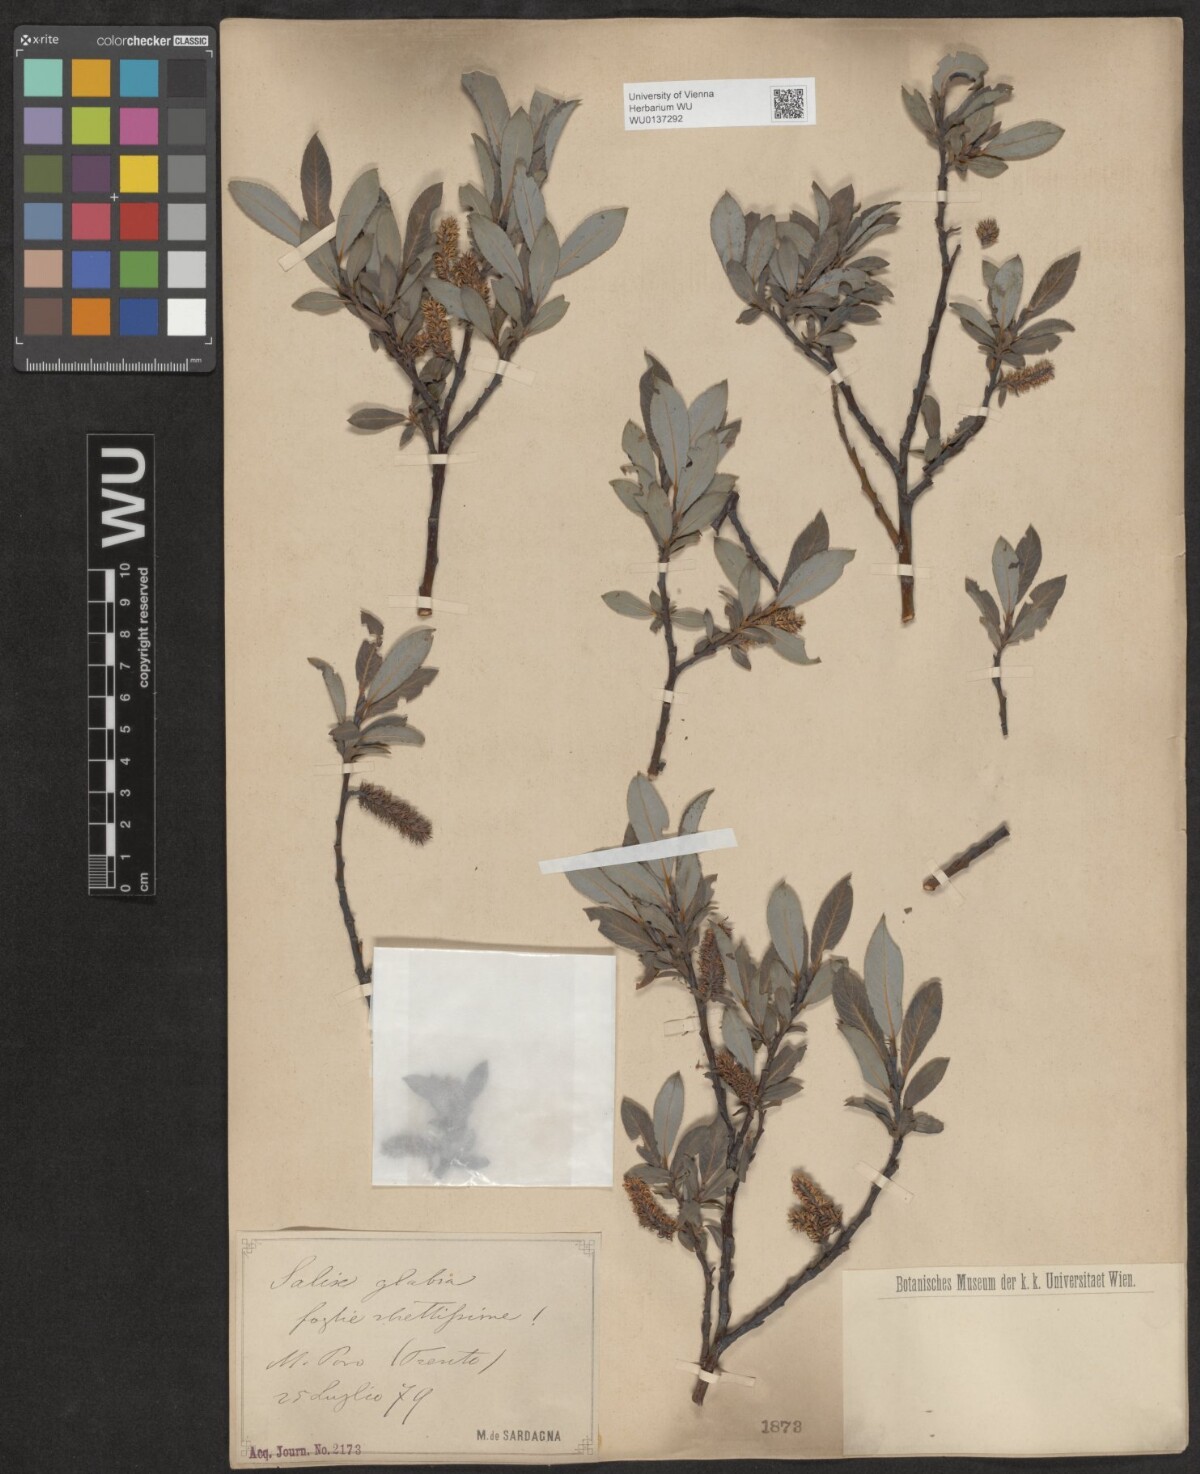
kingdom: Plantae
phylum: Tracheophyta
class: Magnoliopsida
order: Malpighiales
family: Salicaceae
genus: Salix
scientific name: Salix glabra
